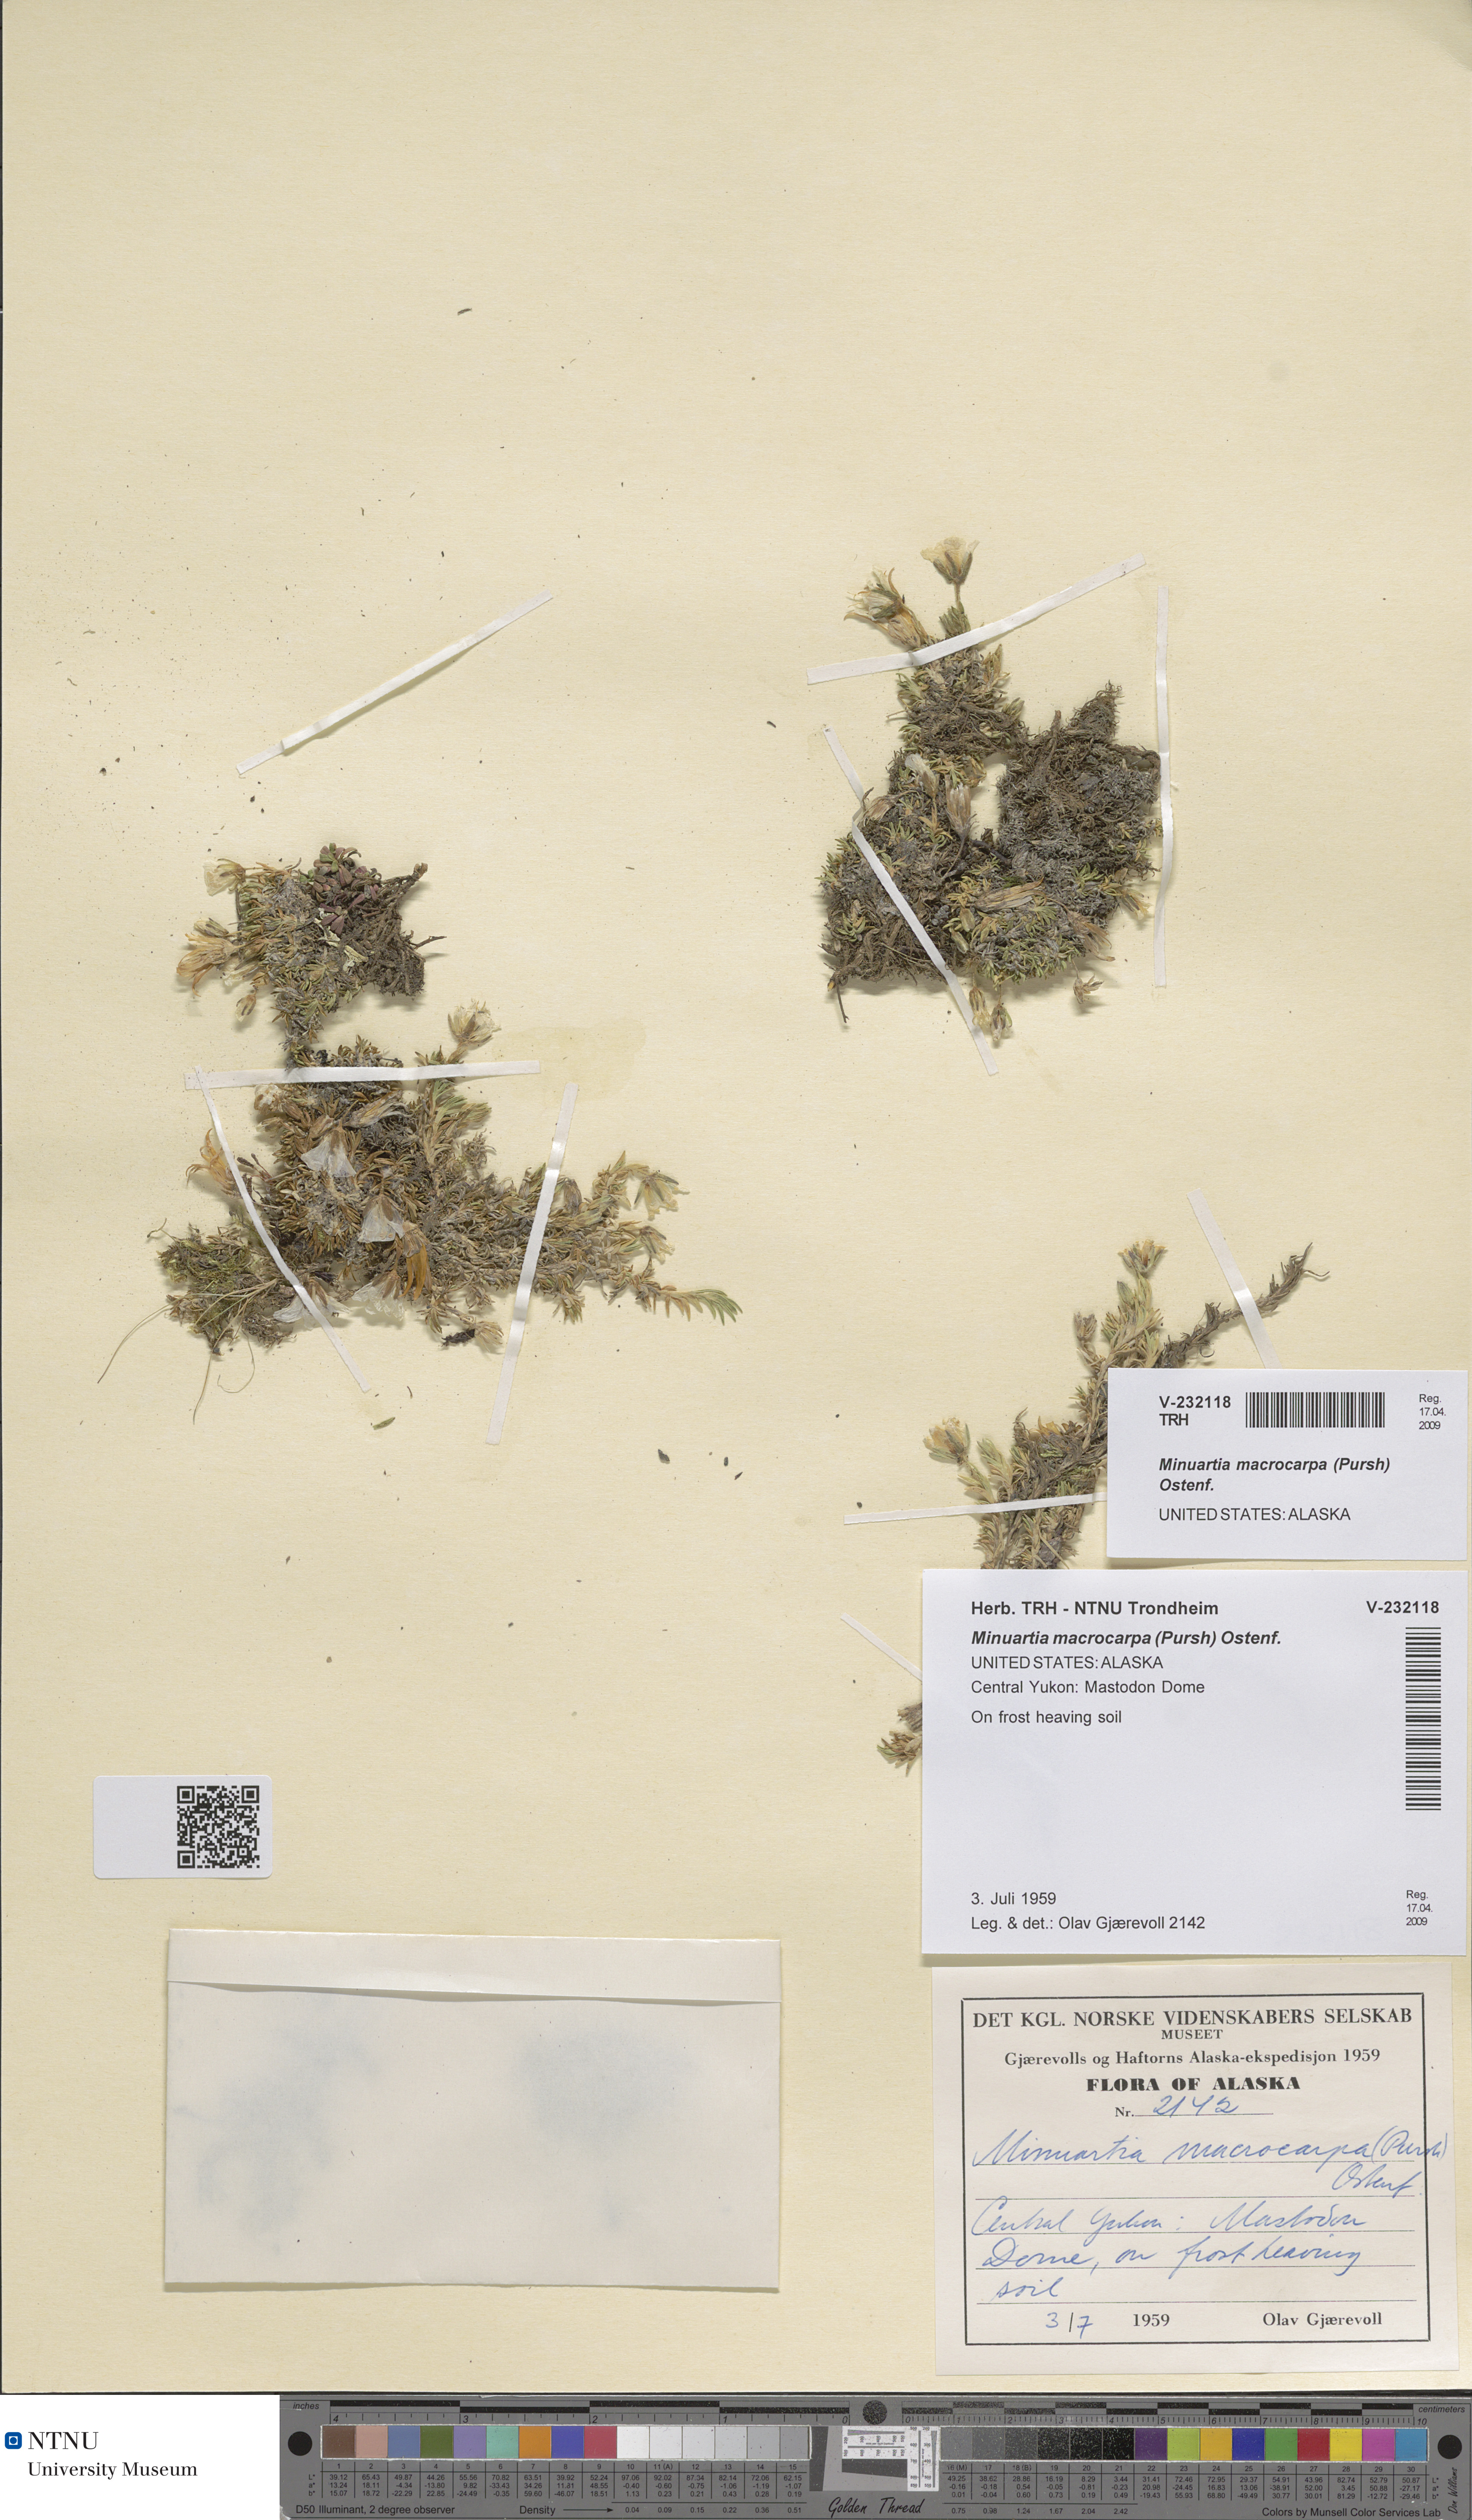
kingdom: Plantae
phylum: Tracheophyta
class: Magnoliopsida
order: Caryophyllales
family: Caryophyllaceae
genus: Pseudocherleria
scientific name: Pseudocherleria macrocarpa
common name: Large-fruit sandwort
